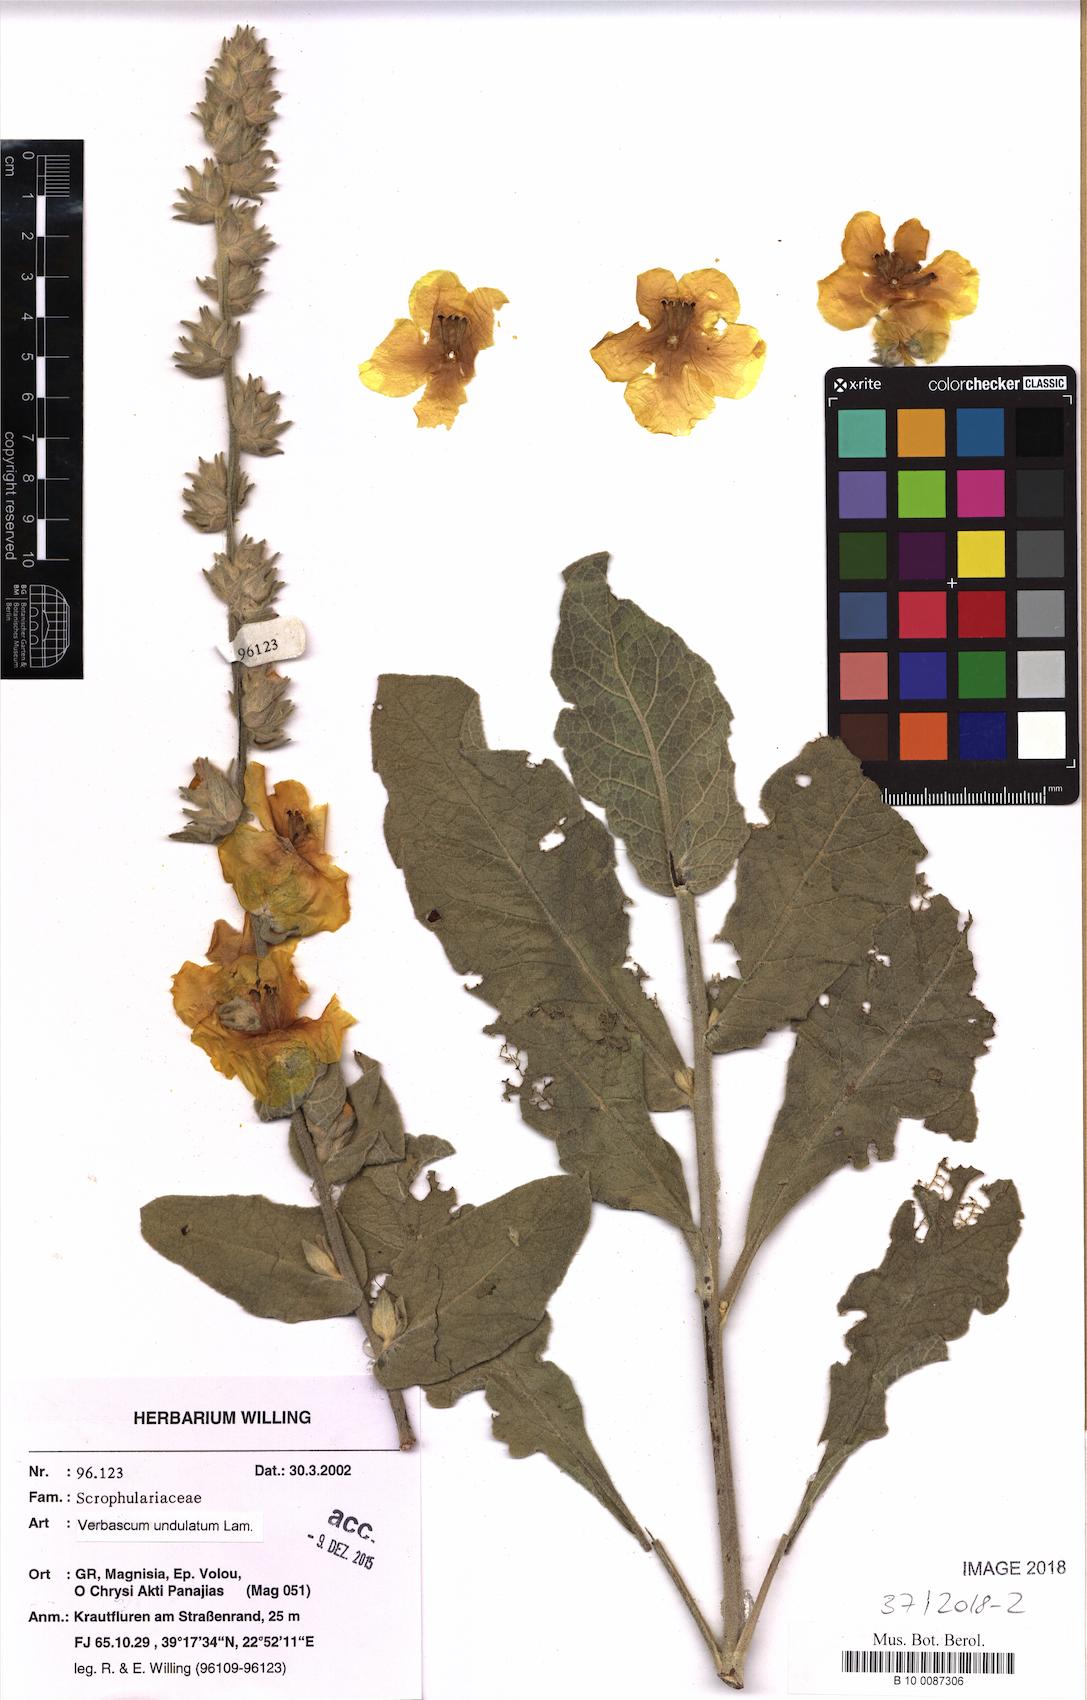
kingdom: Plantae
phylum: Tracheophyta
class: Magnoliopsida
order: Lamiales
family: Scrophulariaceae
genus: Verbascum
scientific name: Verbascum undulatum
